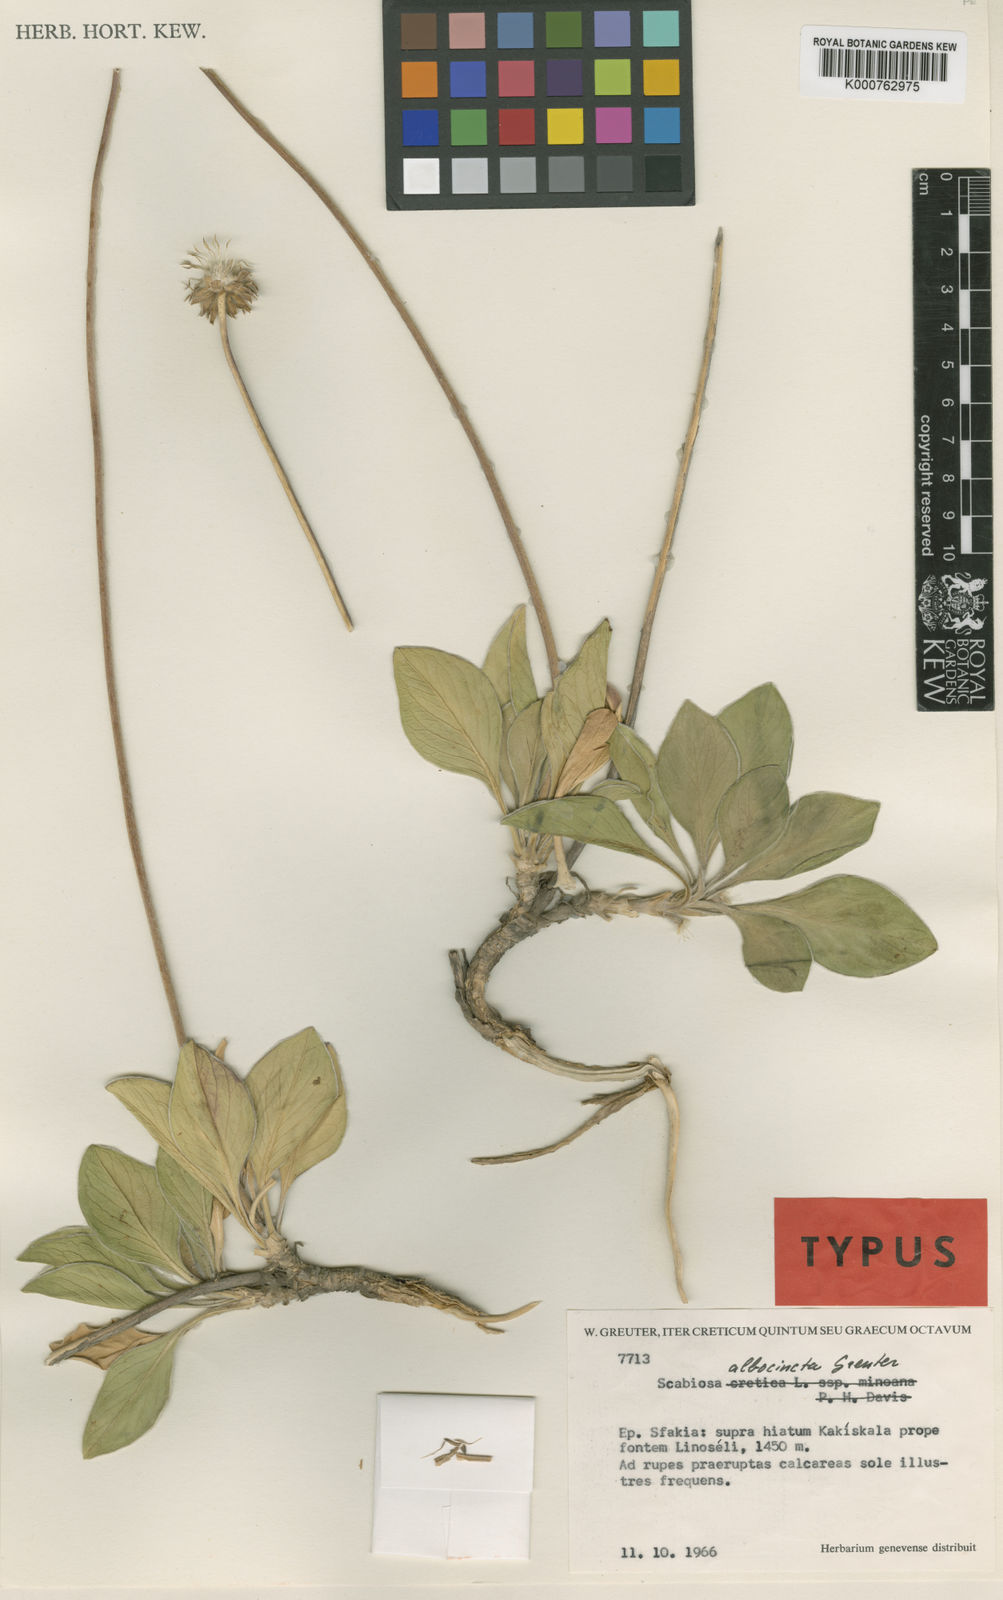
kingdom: Plantae
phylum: Tracheophyta
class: Magnoliopsida
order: Dipsacales
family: Caprifoliaceae
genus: Lomelosia
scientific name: Lomelosia albocincta
